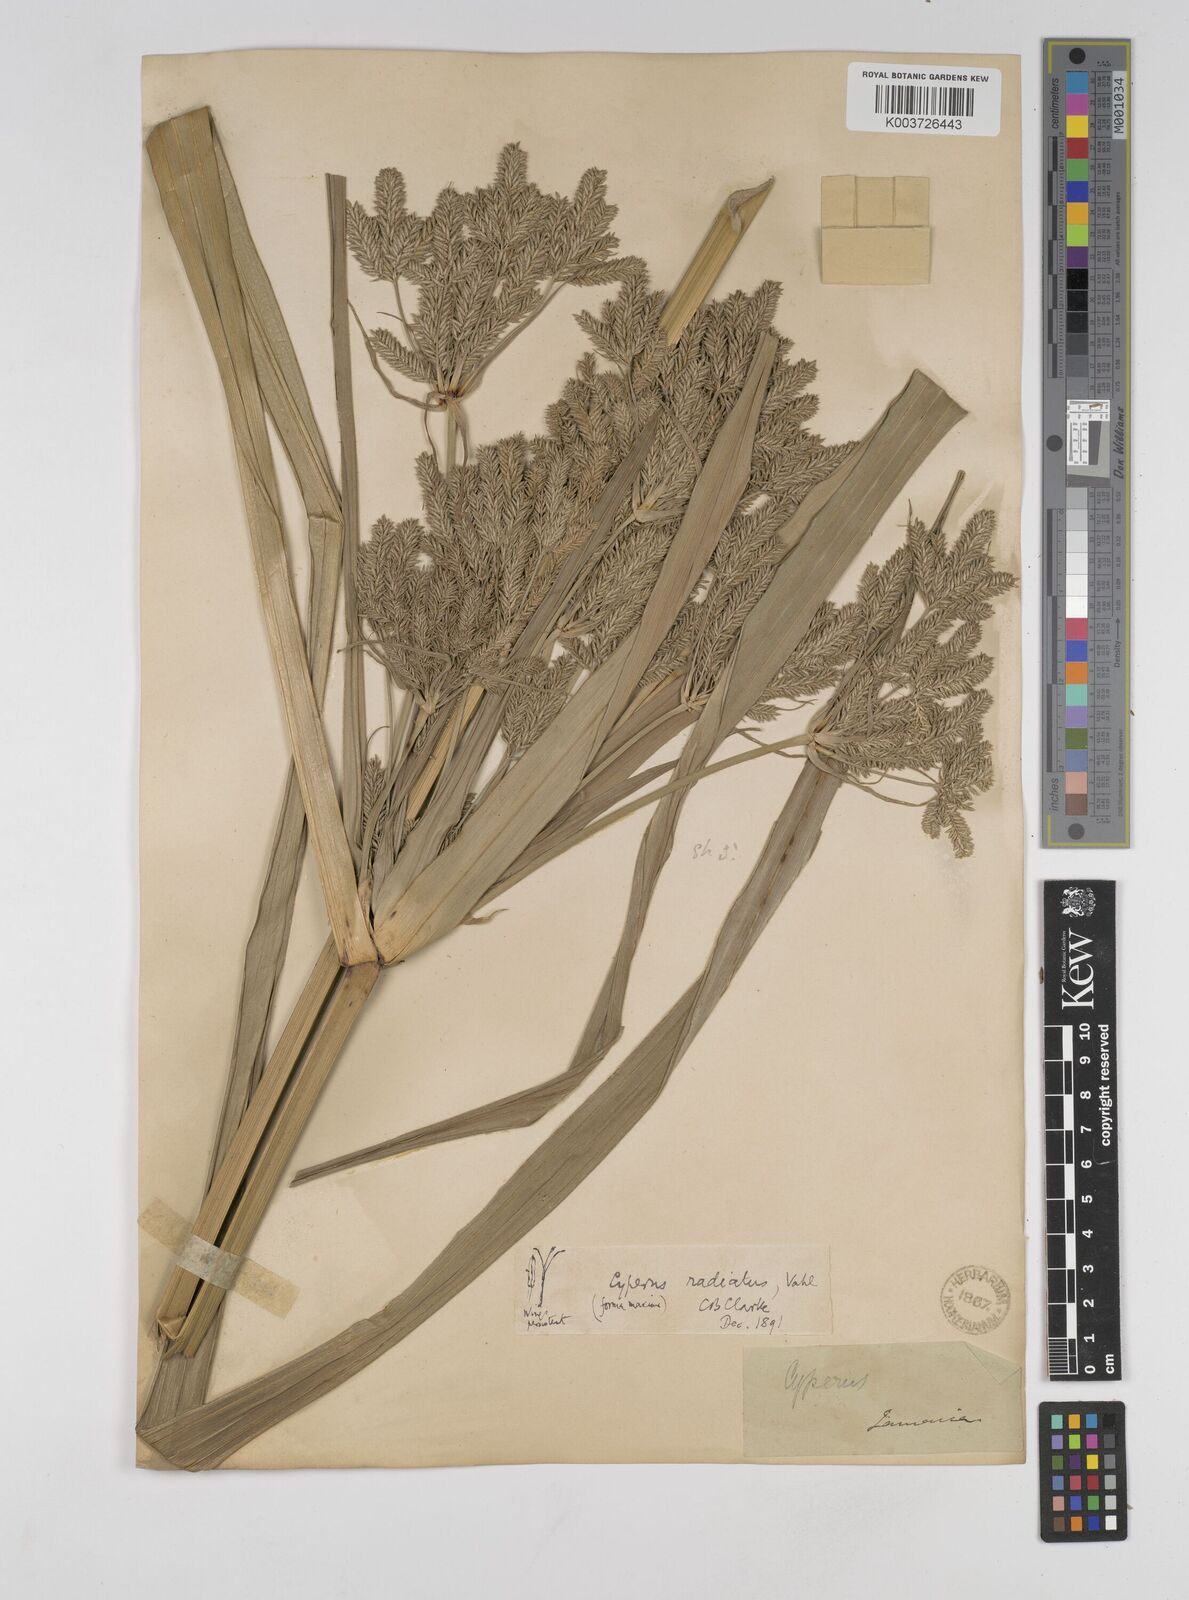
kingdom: Plantae
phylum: Tracheophyta
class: Liliopsida
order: Poales
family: Cyperaceae
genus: Cyperus
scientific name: Cyperus imbricatus
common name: Shingle flatsedge
